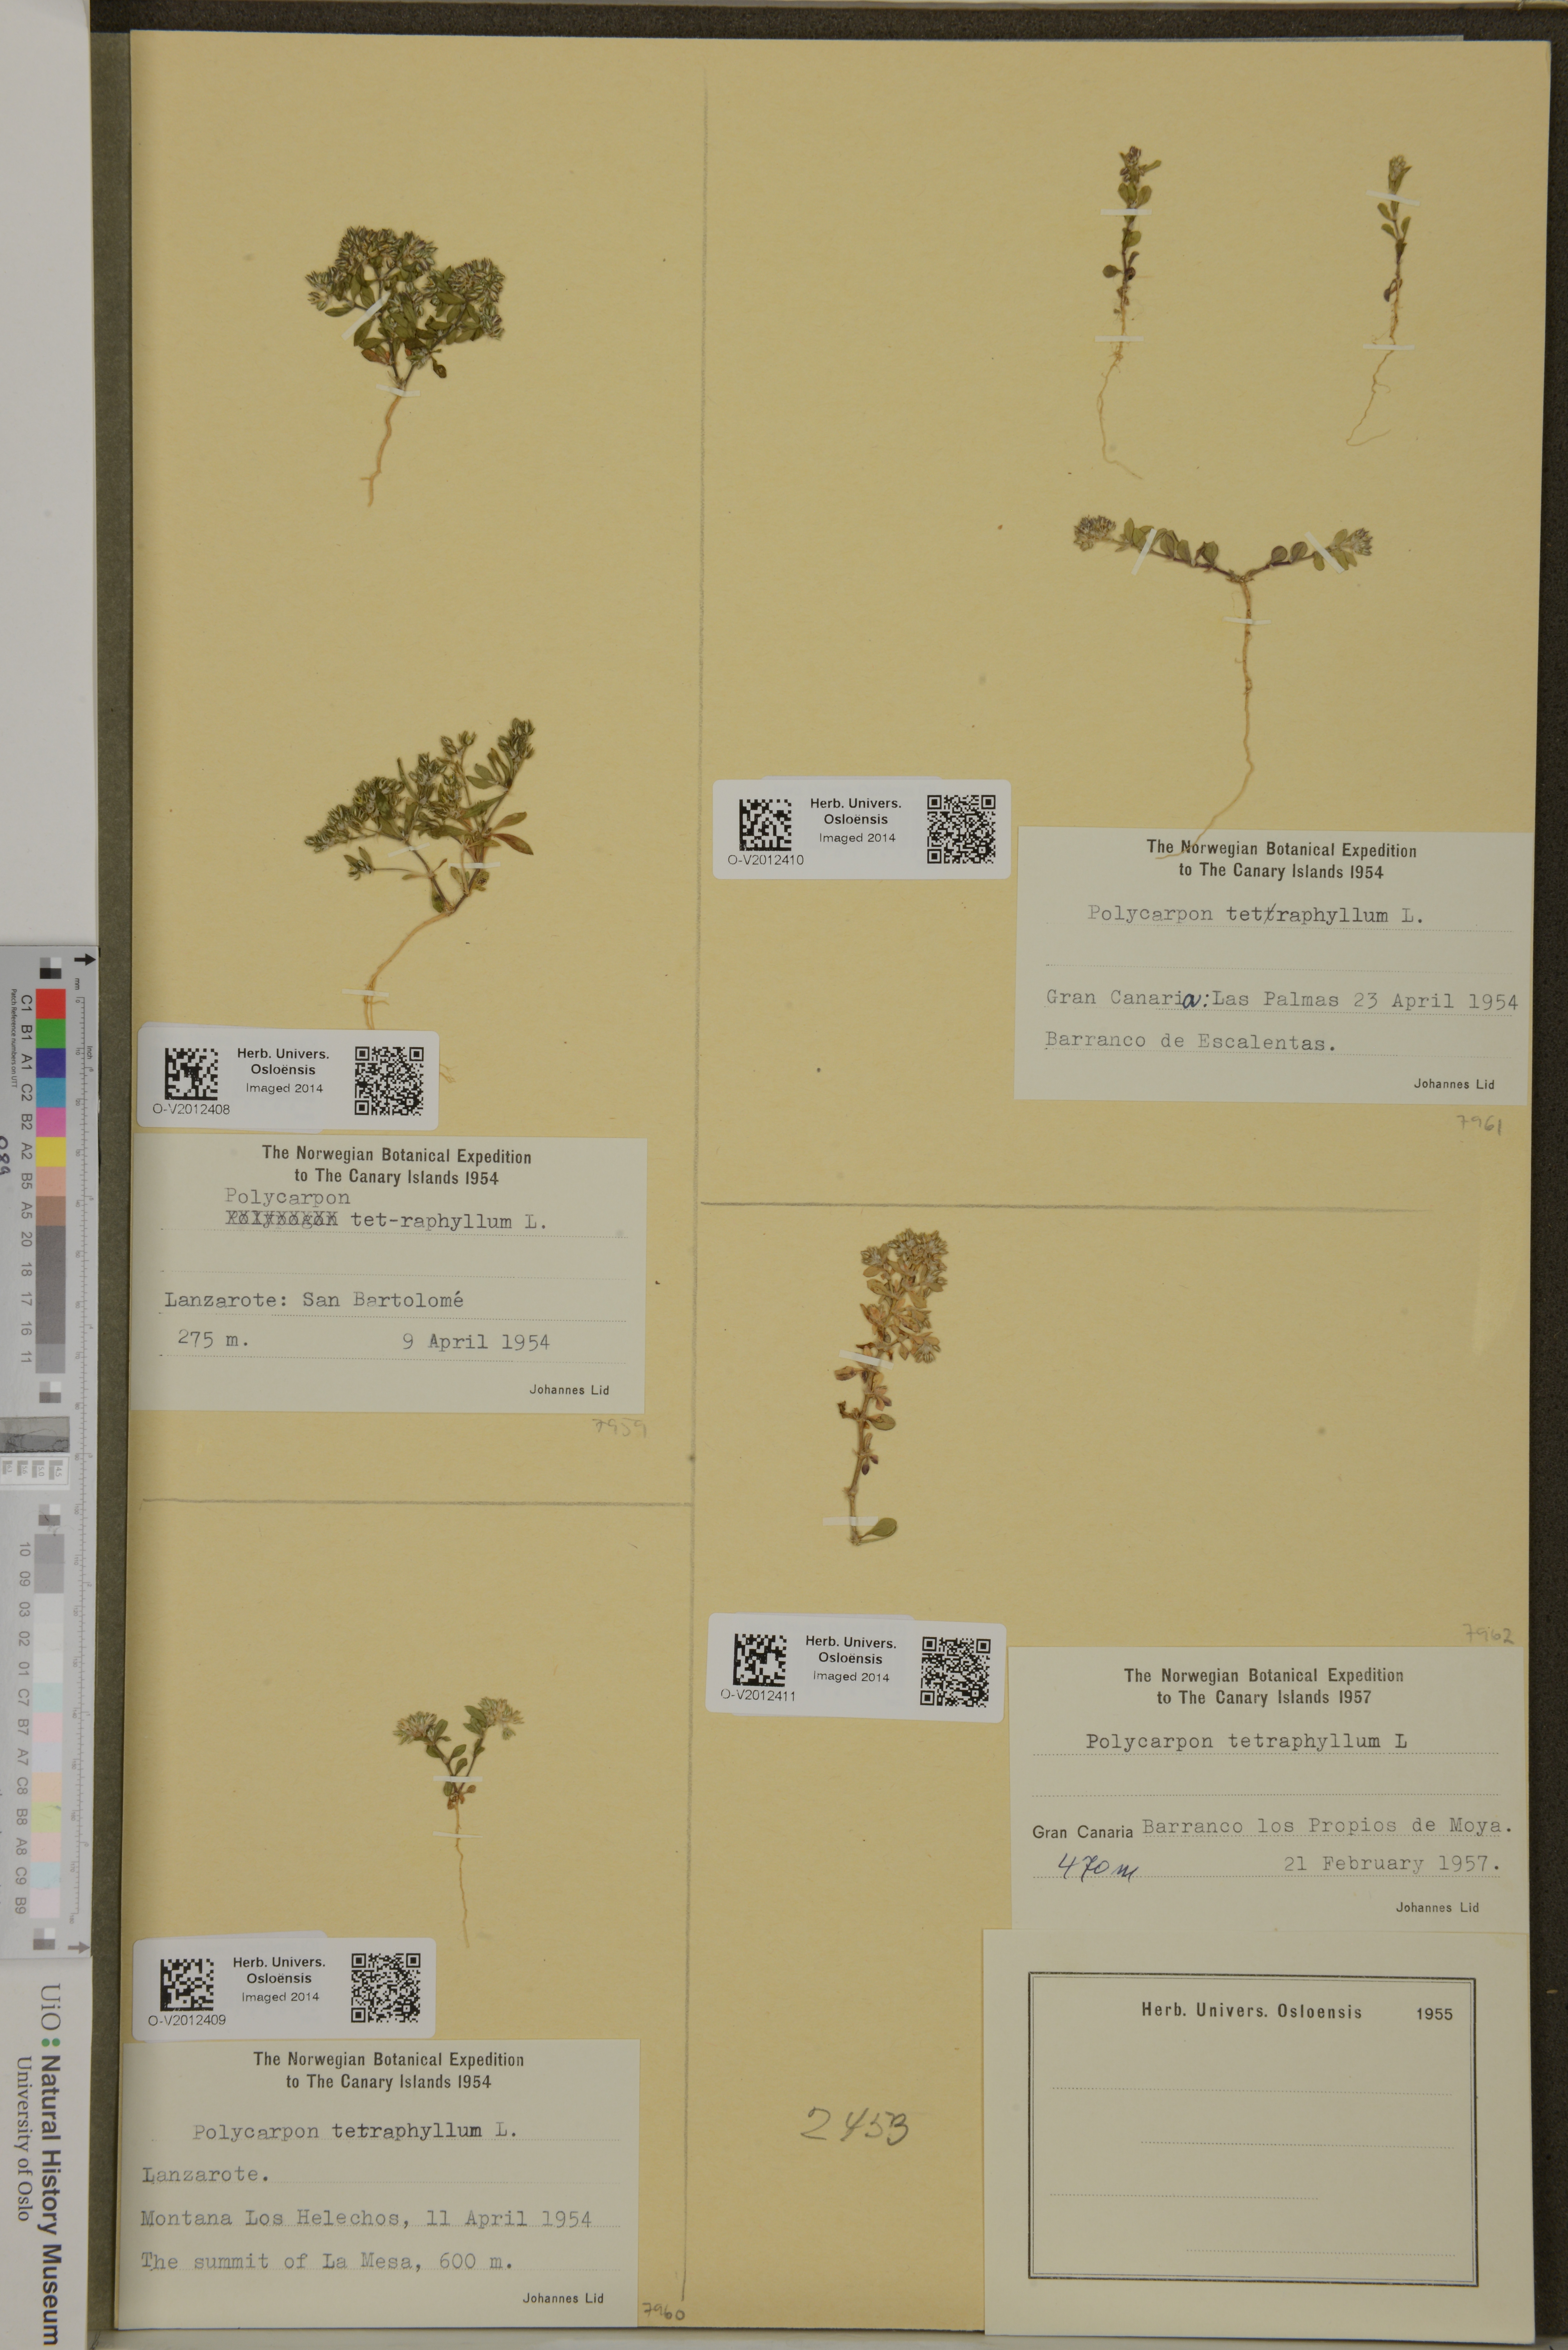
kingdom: Plantae
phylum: Tracheophyta
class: Magnoliopsida
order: Caryophyllales
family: Caryophyllaceae
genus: Polycarpon
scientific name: Polycarpon tetraphyllum
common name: Four-leaved all-seed
